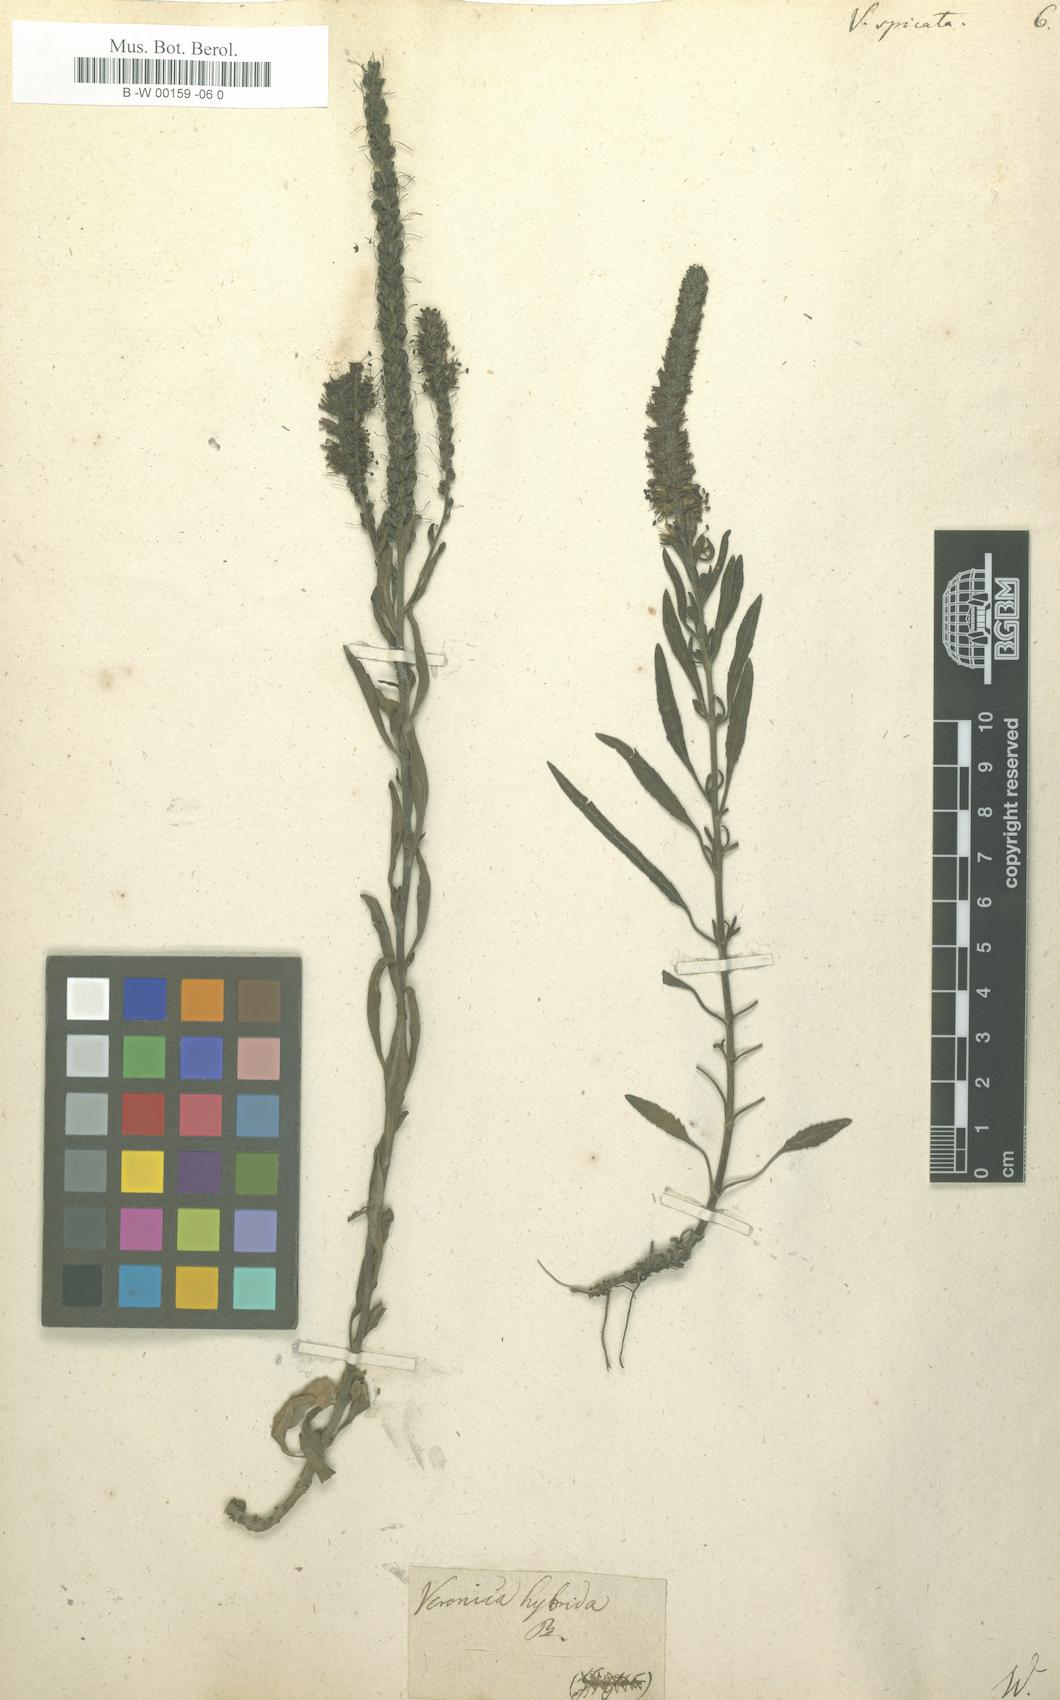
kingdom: Plantae
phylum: Tracheophyta
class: Magnoliopsida
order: Lamiales
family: Plantaginaceae
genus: Veronica
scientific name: Veronica spicata
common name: Spiked speedwell
